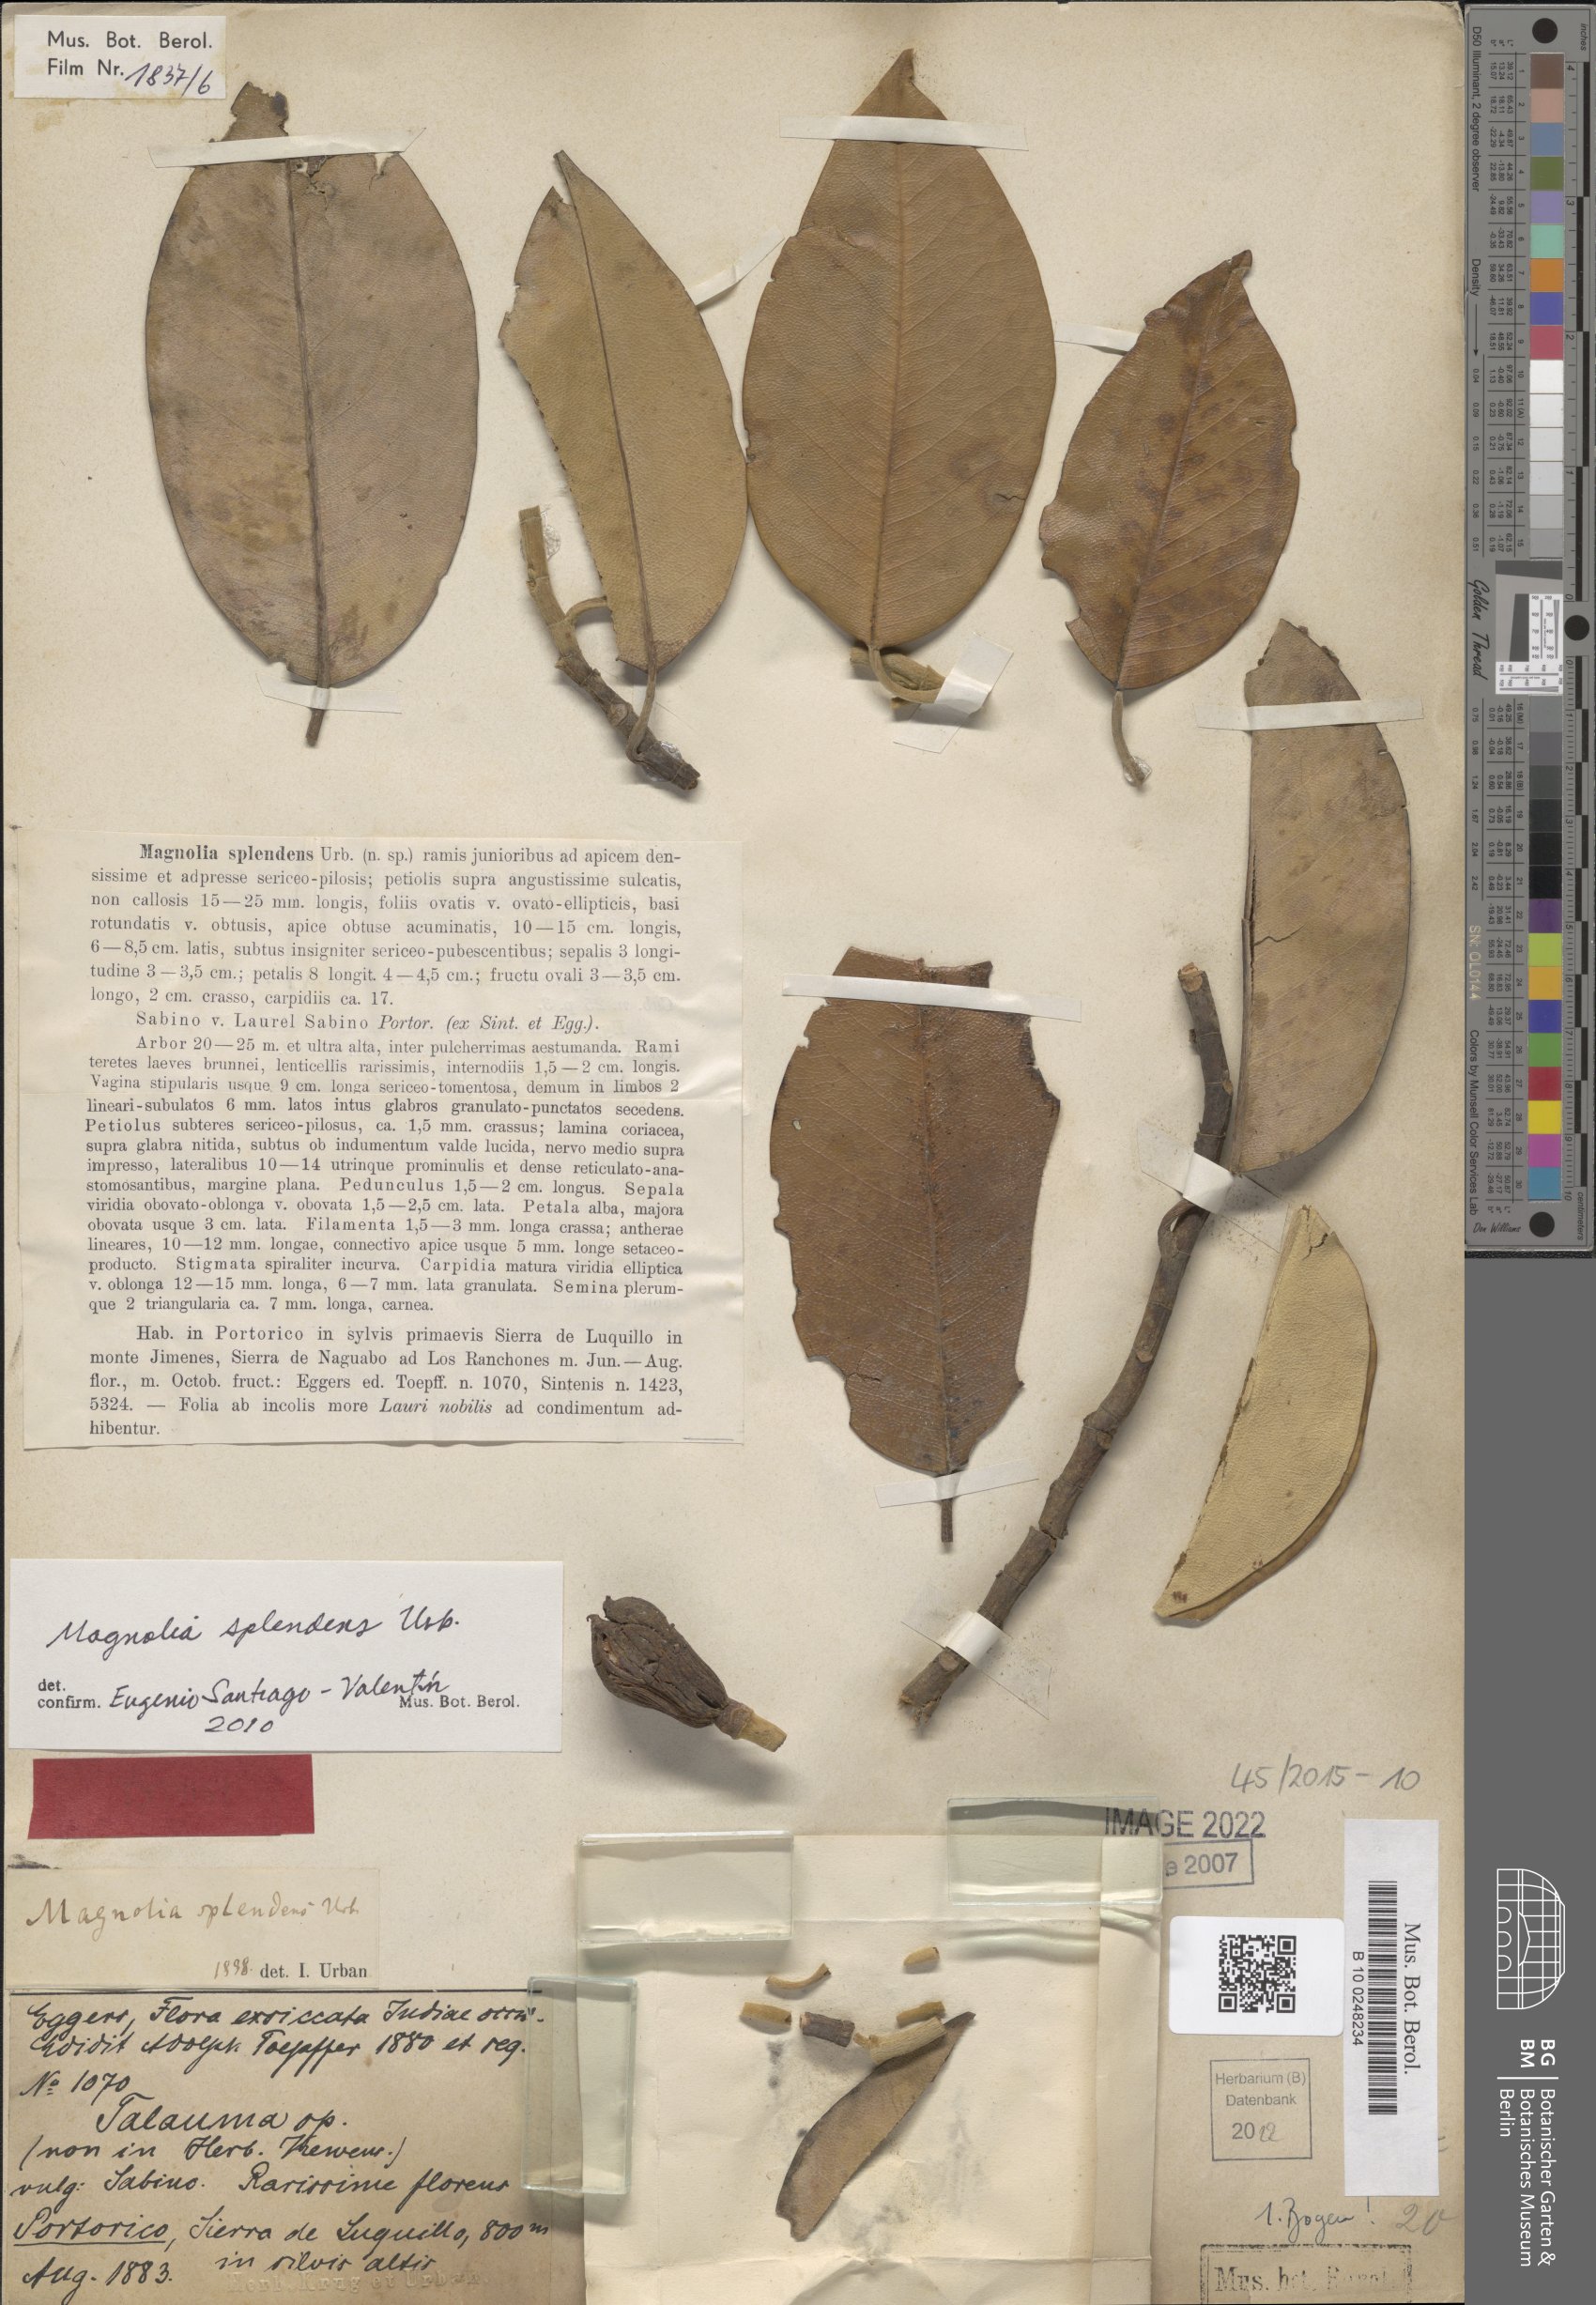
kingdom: Plantae
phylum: Tracheophyta
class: Magnoliopsida
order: Magnoliales
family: Magnoliaceae
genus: Magnolia
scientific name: Magnolia splendens
